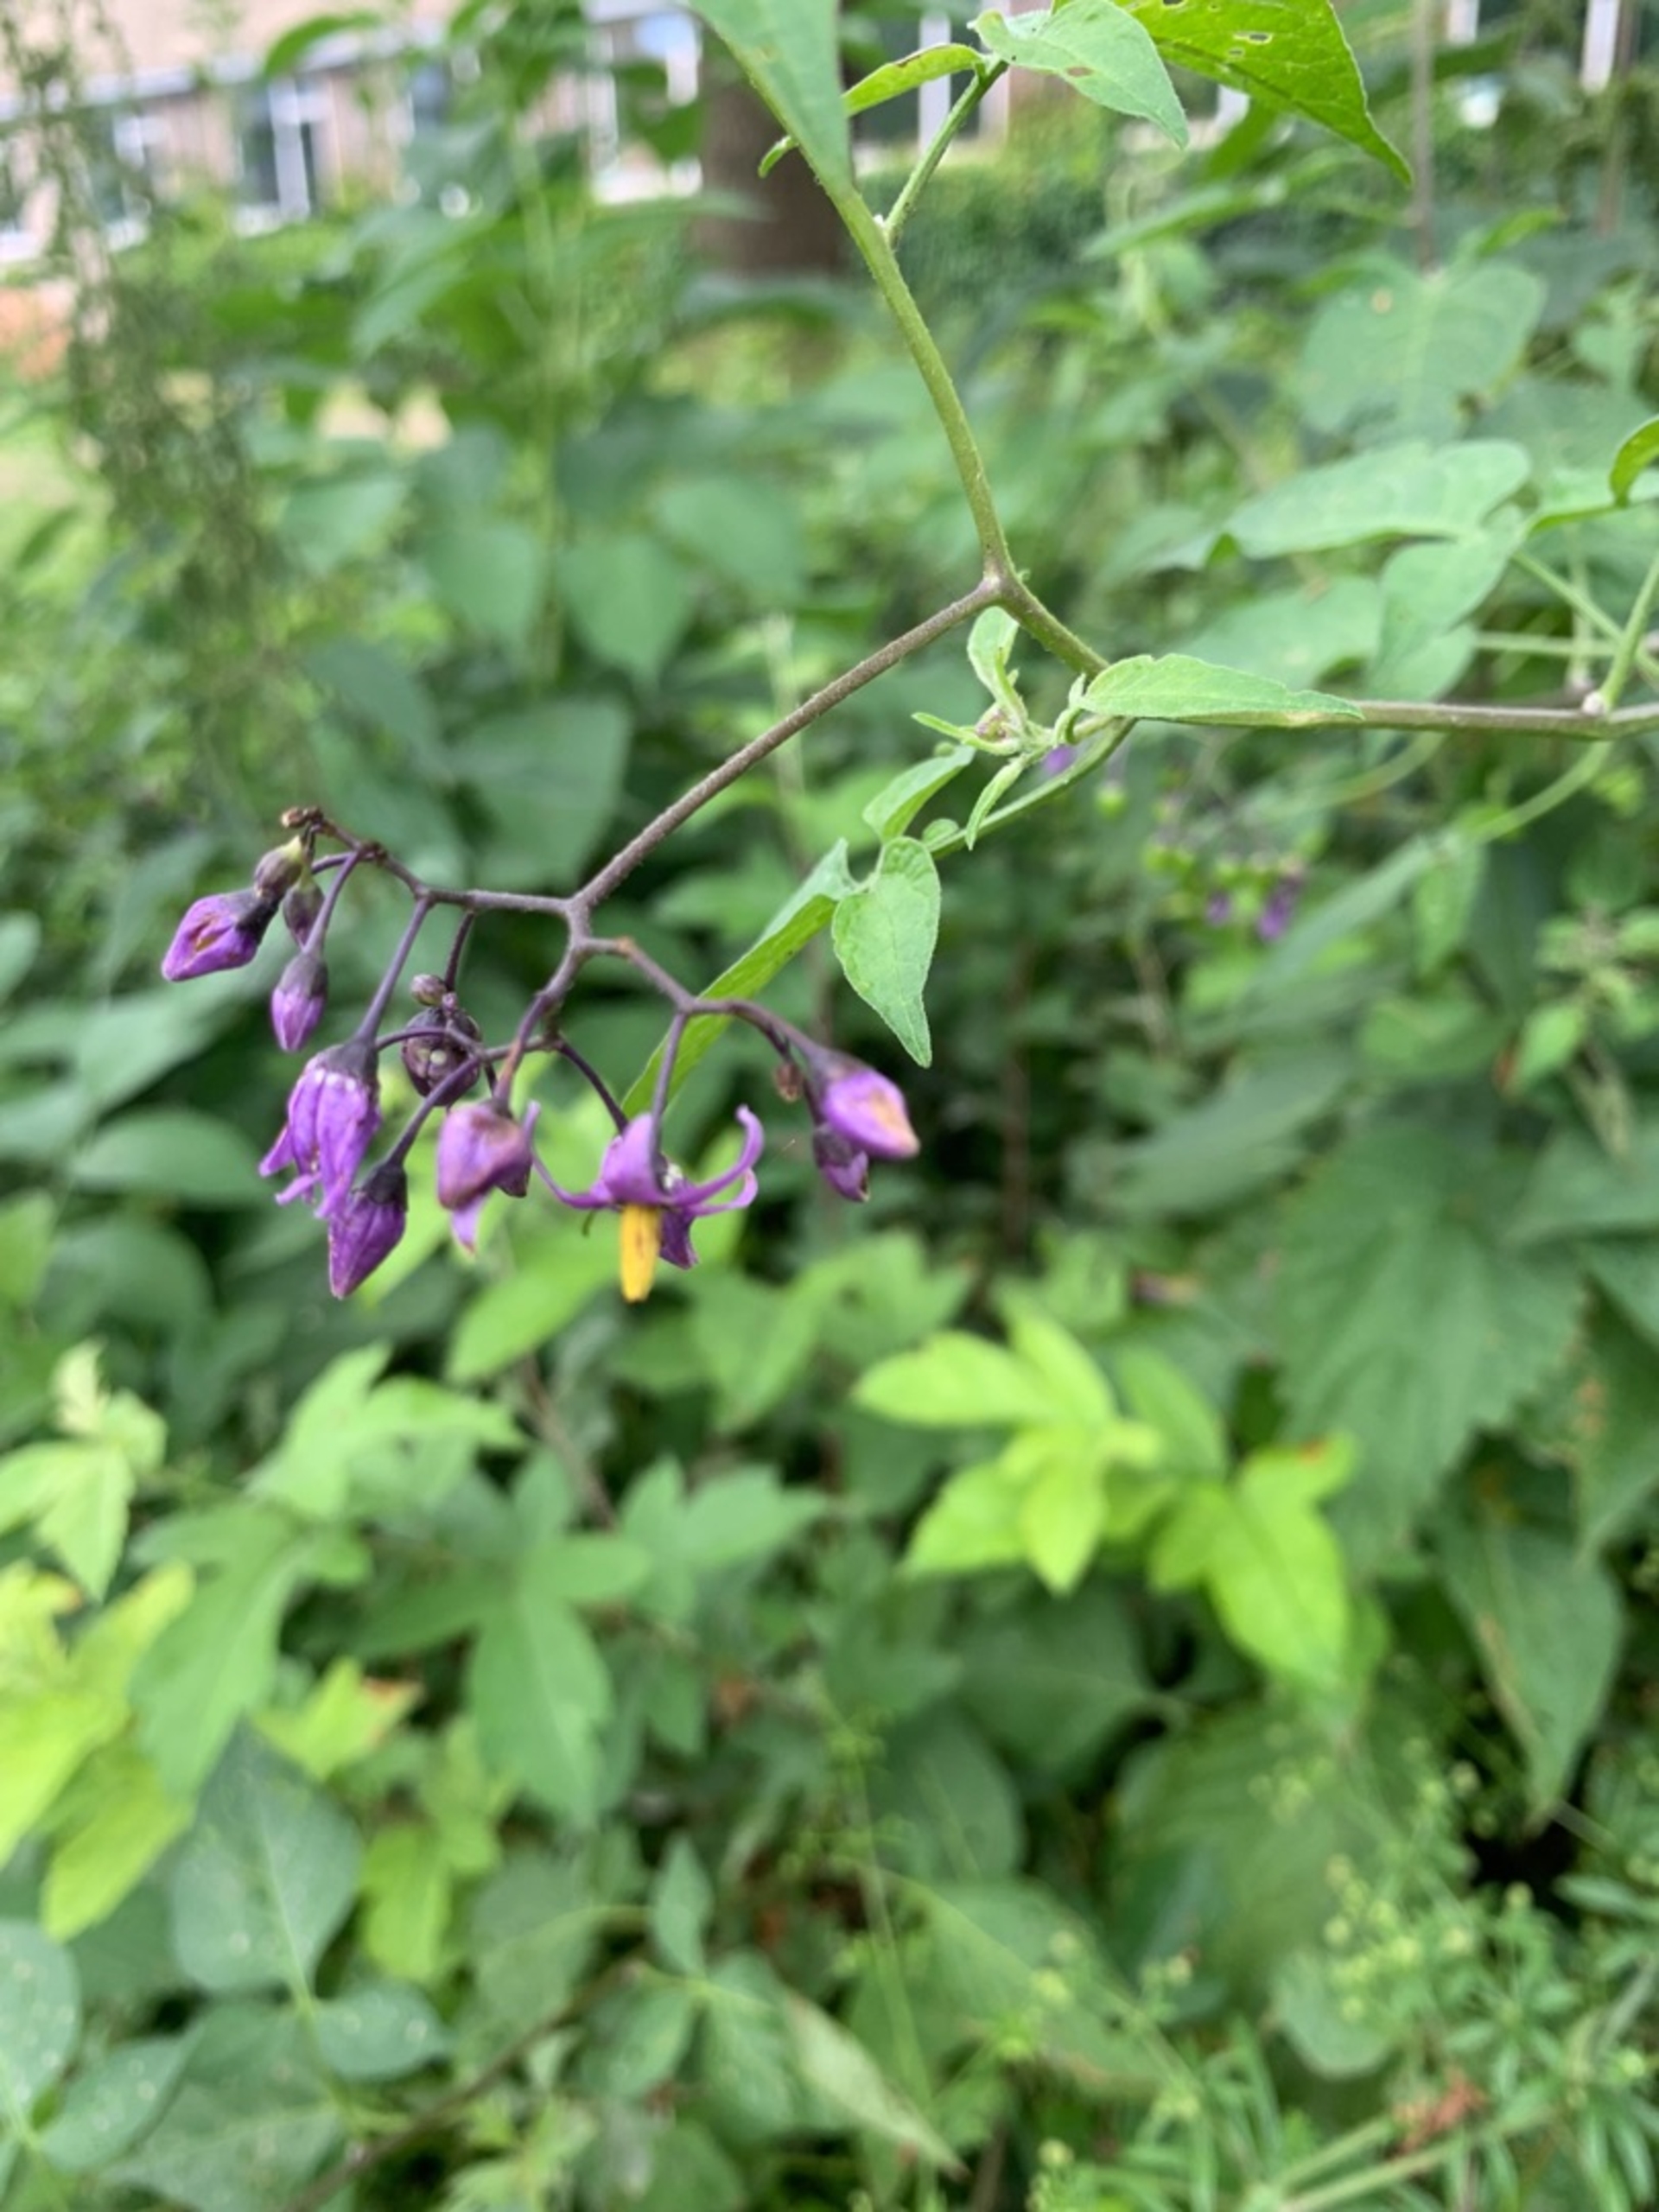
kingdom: Plantae
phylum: Tracheophyta
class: Magnoliopsida
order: Solanales
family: Solanaceae
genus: Solanum
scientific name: Solanum dulcamara
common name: Bittersød natskygge (varietet)
